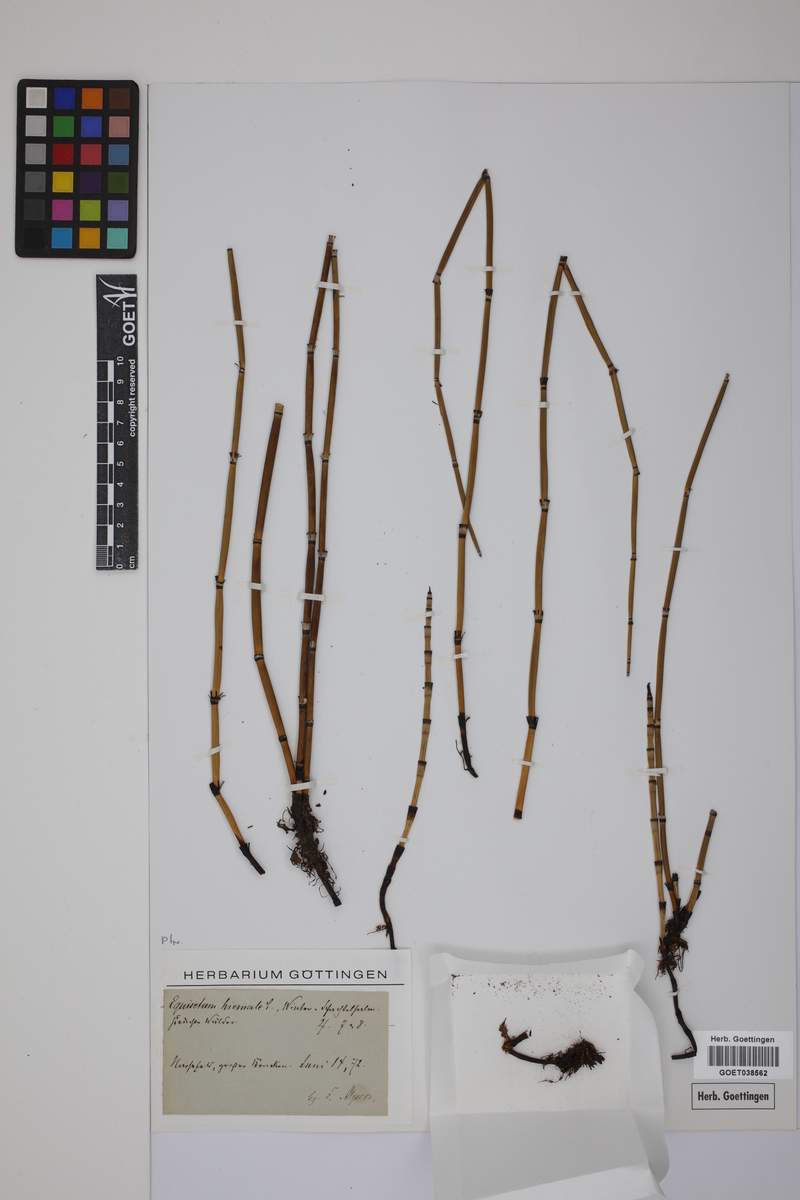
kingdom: Plantae
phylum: Tracheophyta
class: Polypodiopsida
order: Equisetales
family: Equisetaceae
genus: Equisetum
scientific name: Equisetum hyemale
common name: Rough horsetail
